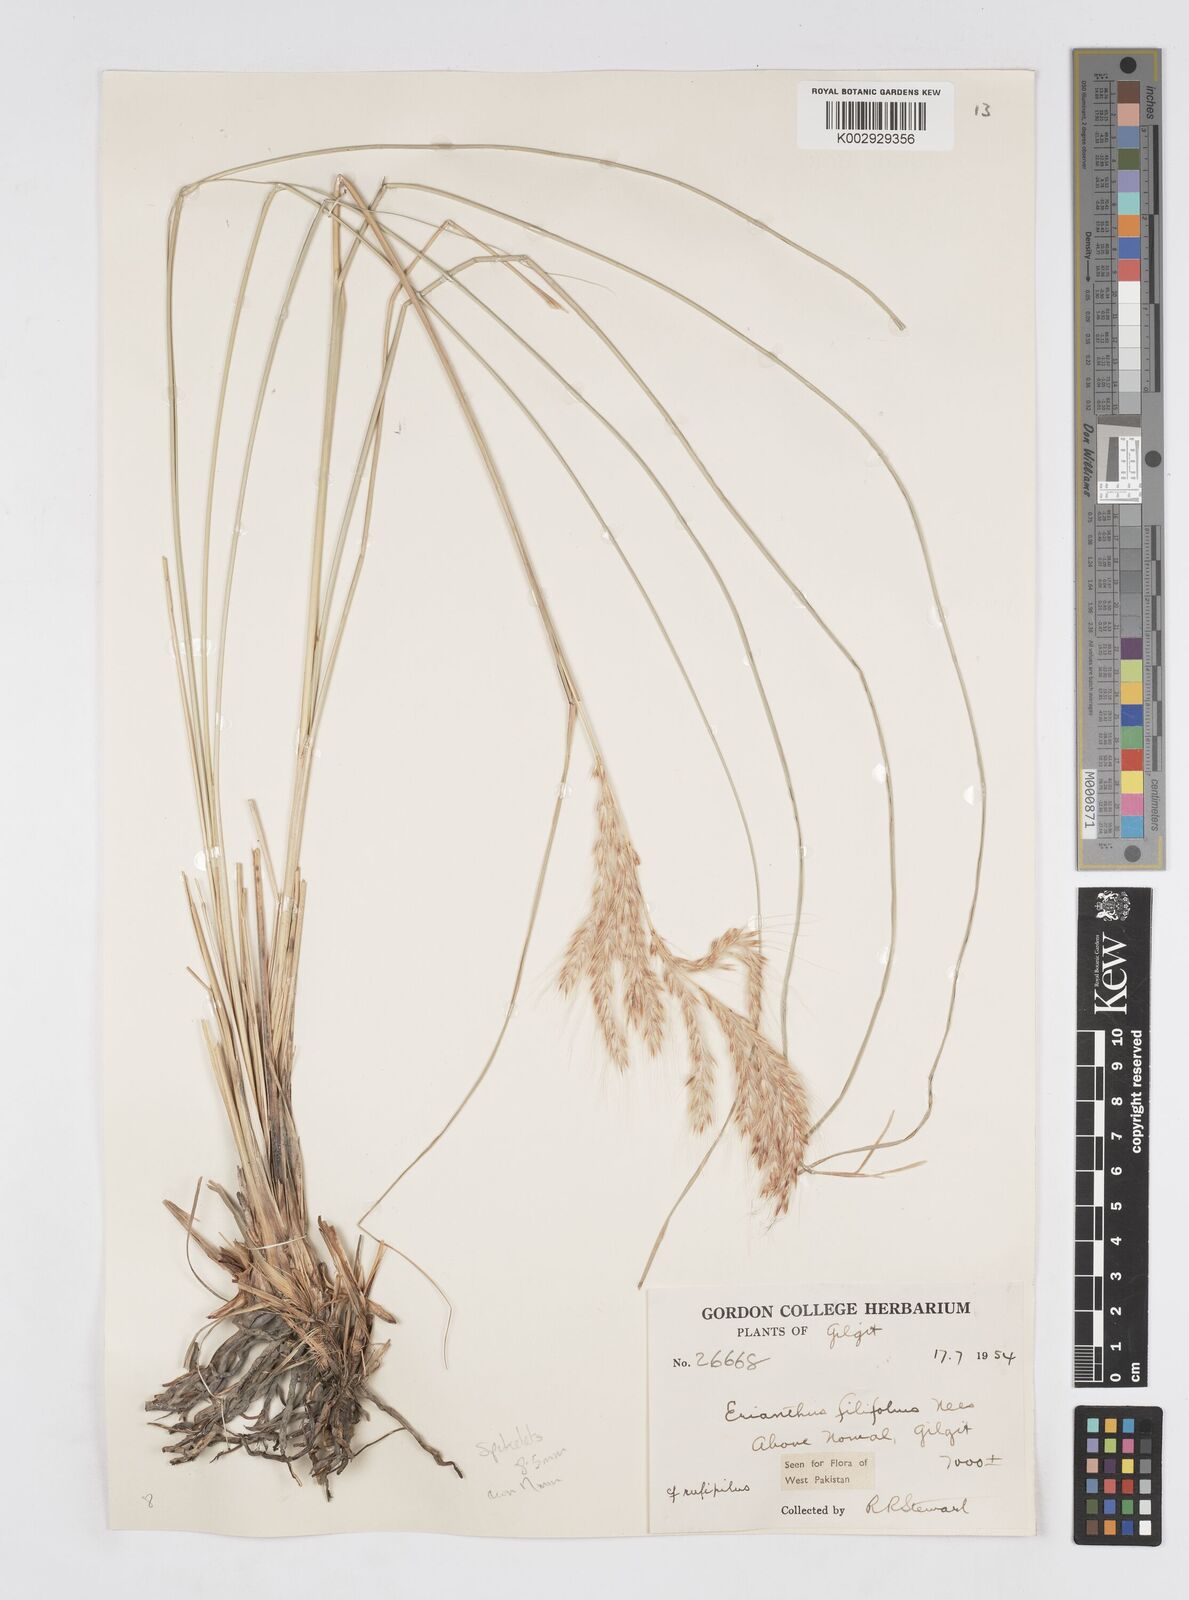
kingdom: Plantae
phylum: Tracheophyta
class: Liliopsida
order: Poales
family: Poaceae
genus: Saccharum
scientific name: Saccharum filifolium
